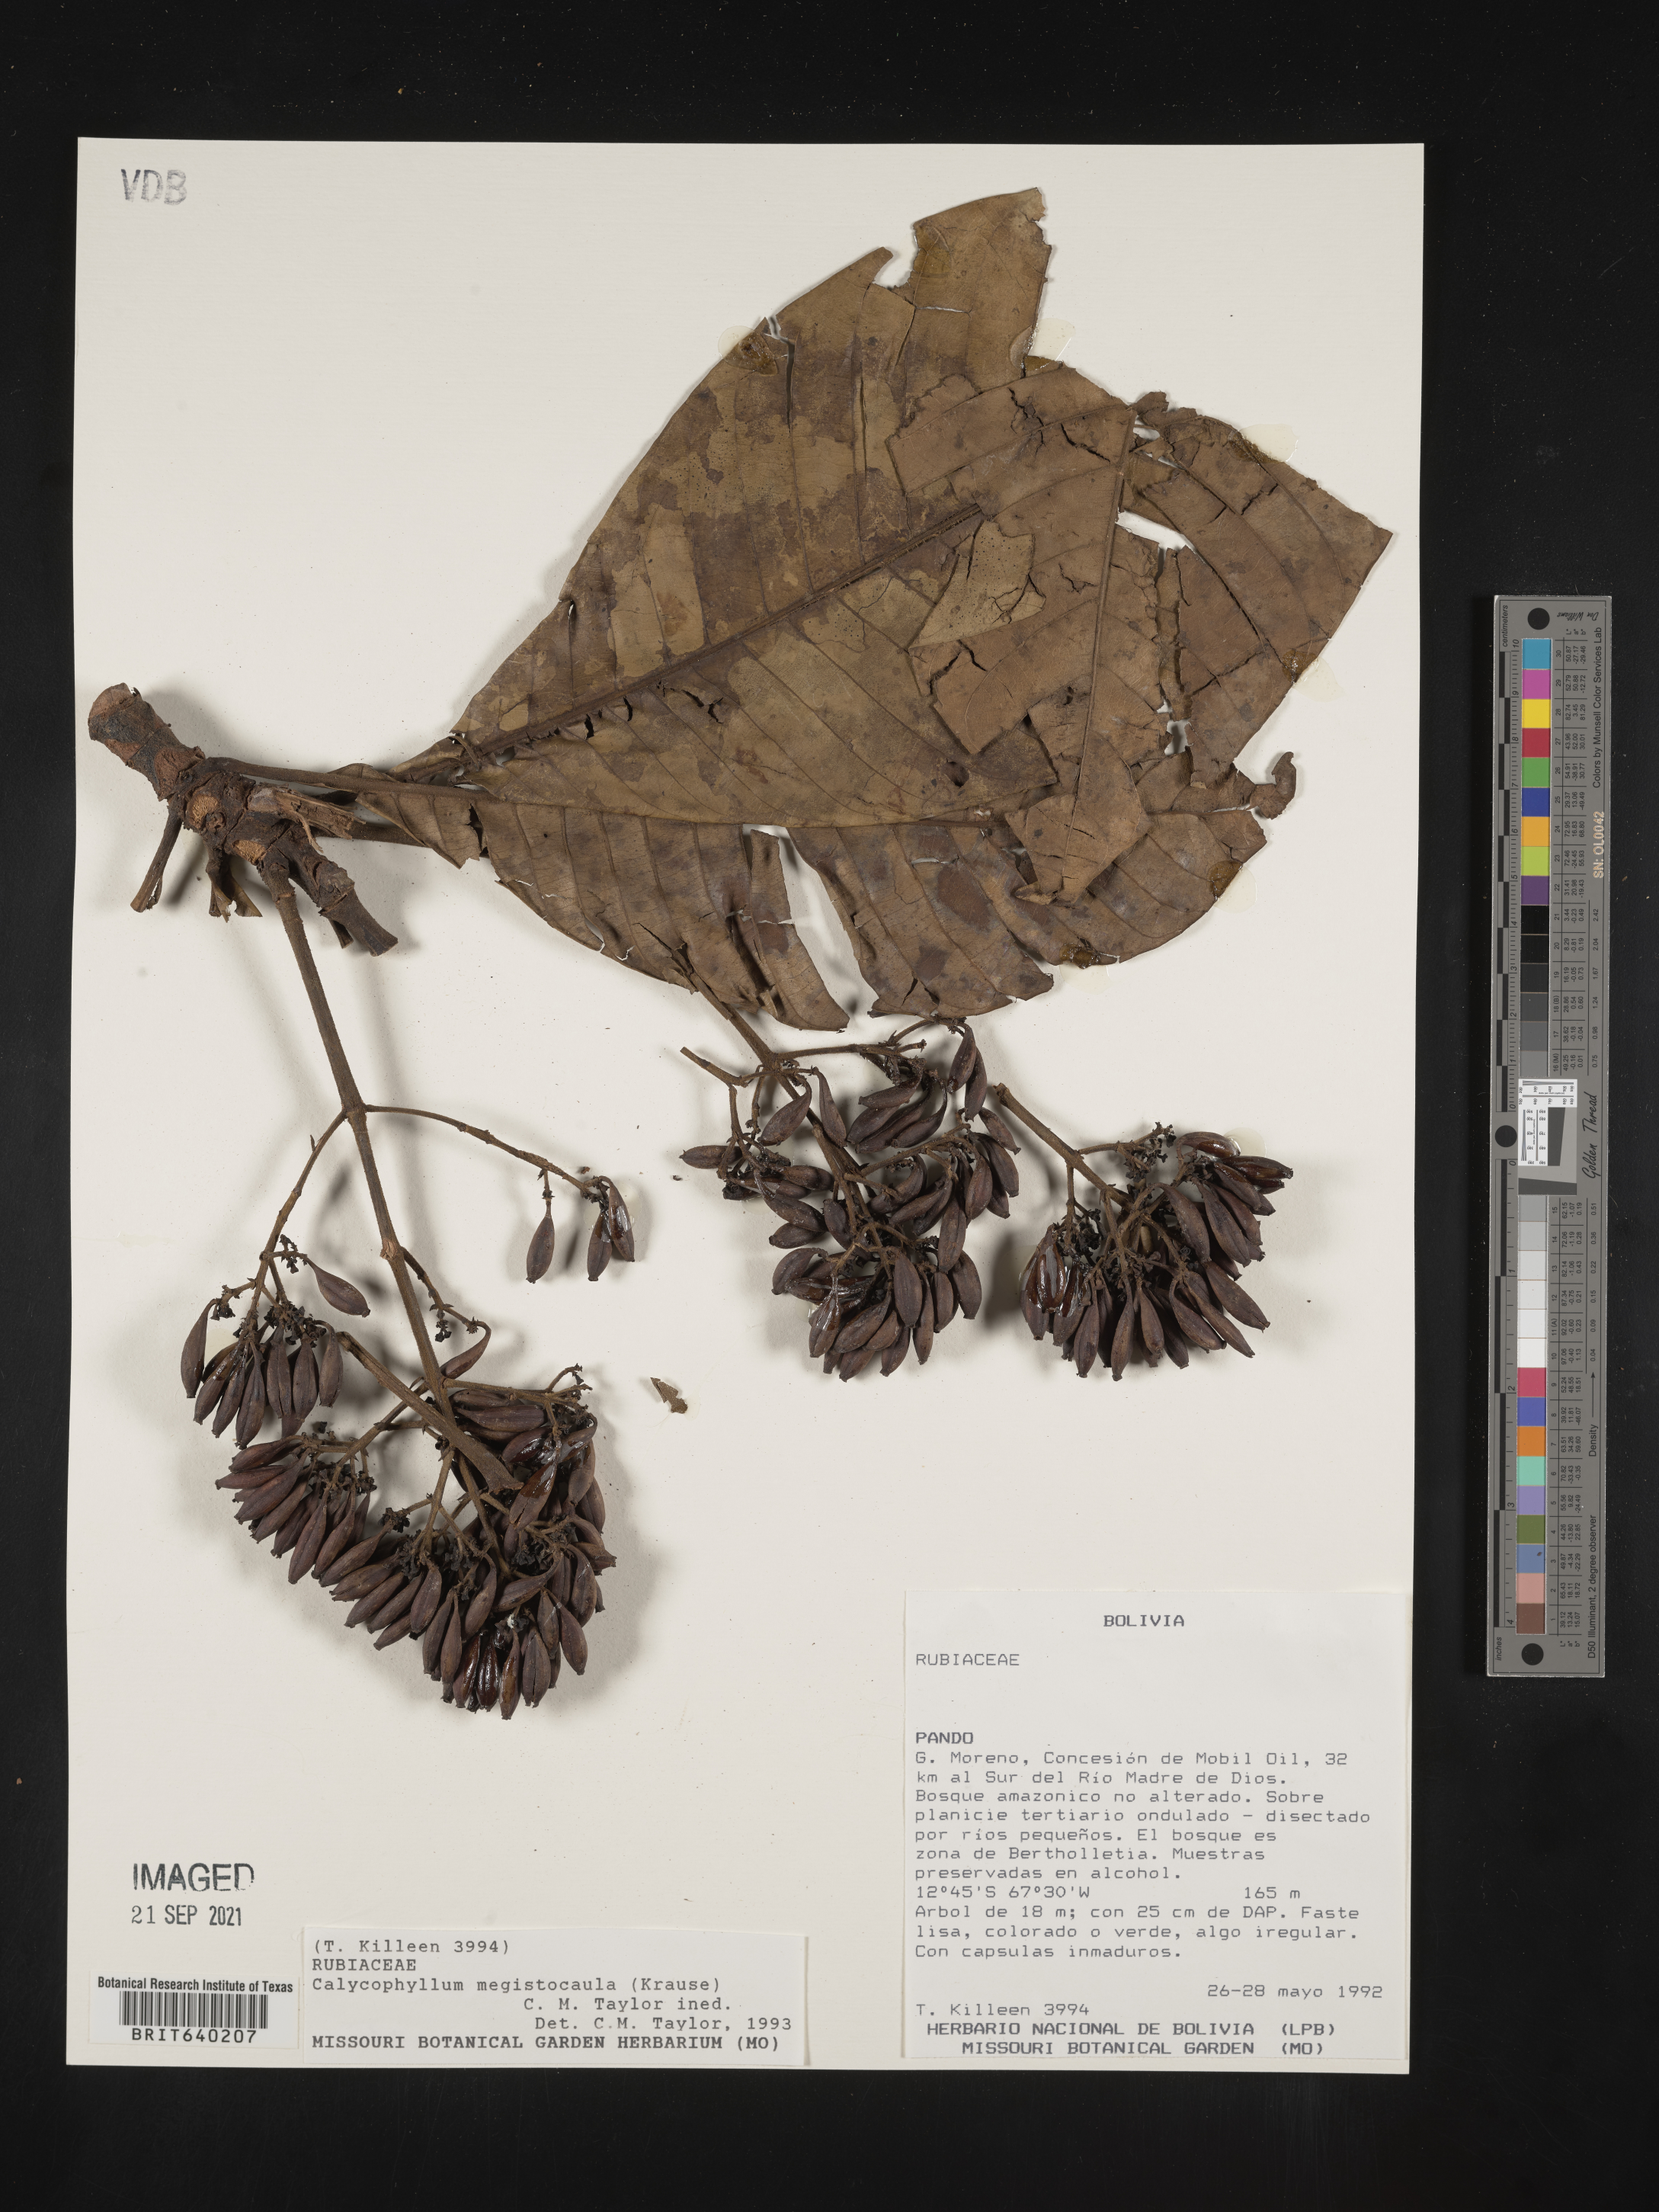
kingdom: Plantae
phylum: Tracheophyta
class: Magnoliopsida
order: Gentianales
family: Rubiaceae
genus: Calycophyllum
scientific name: Calycophyllum
